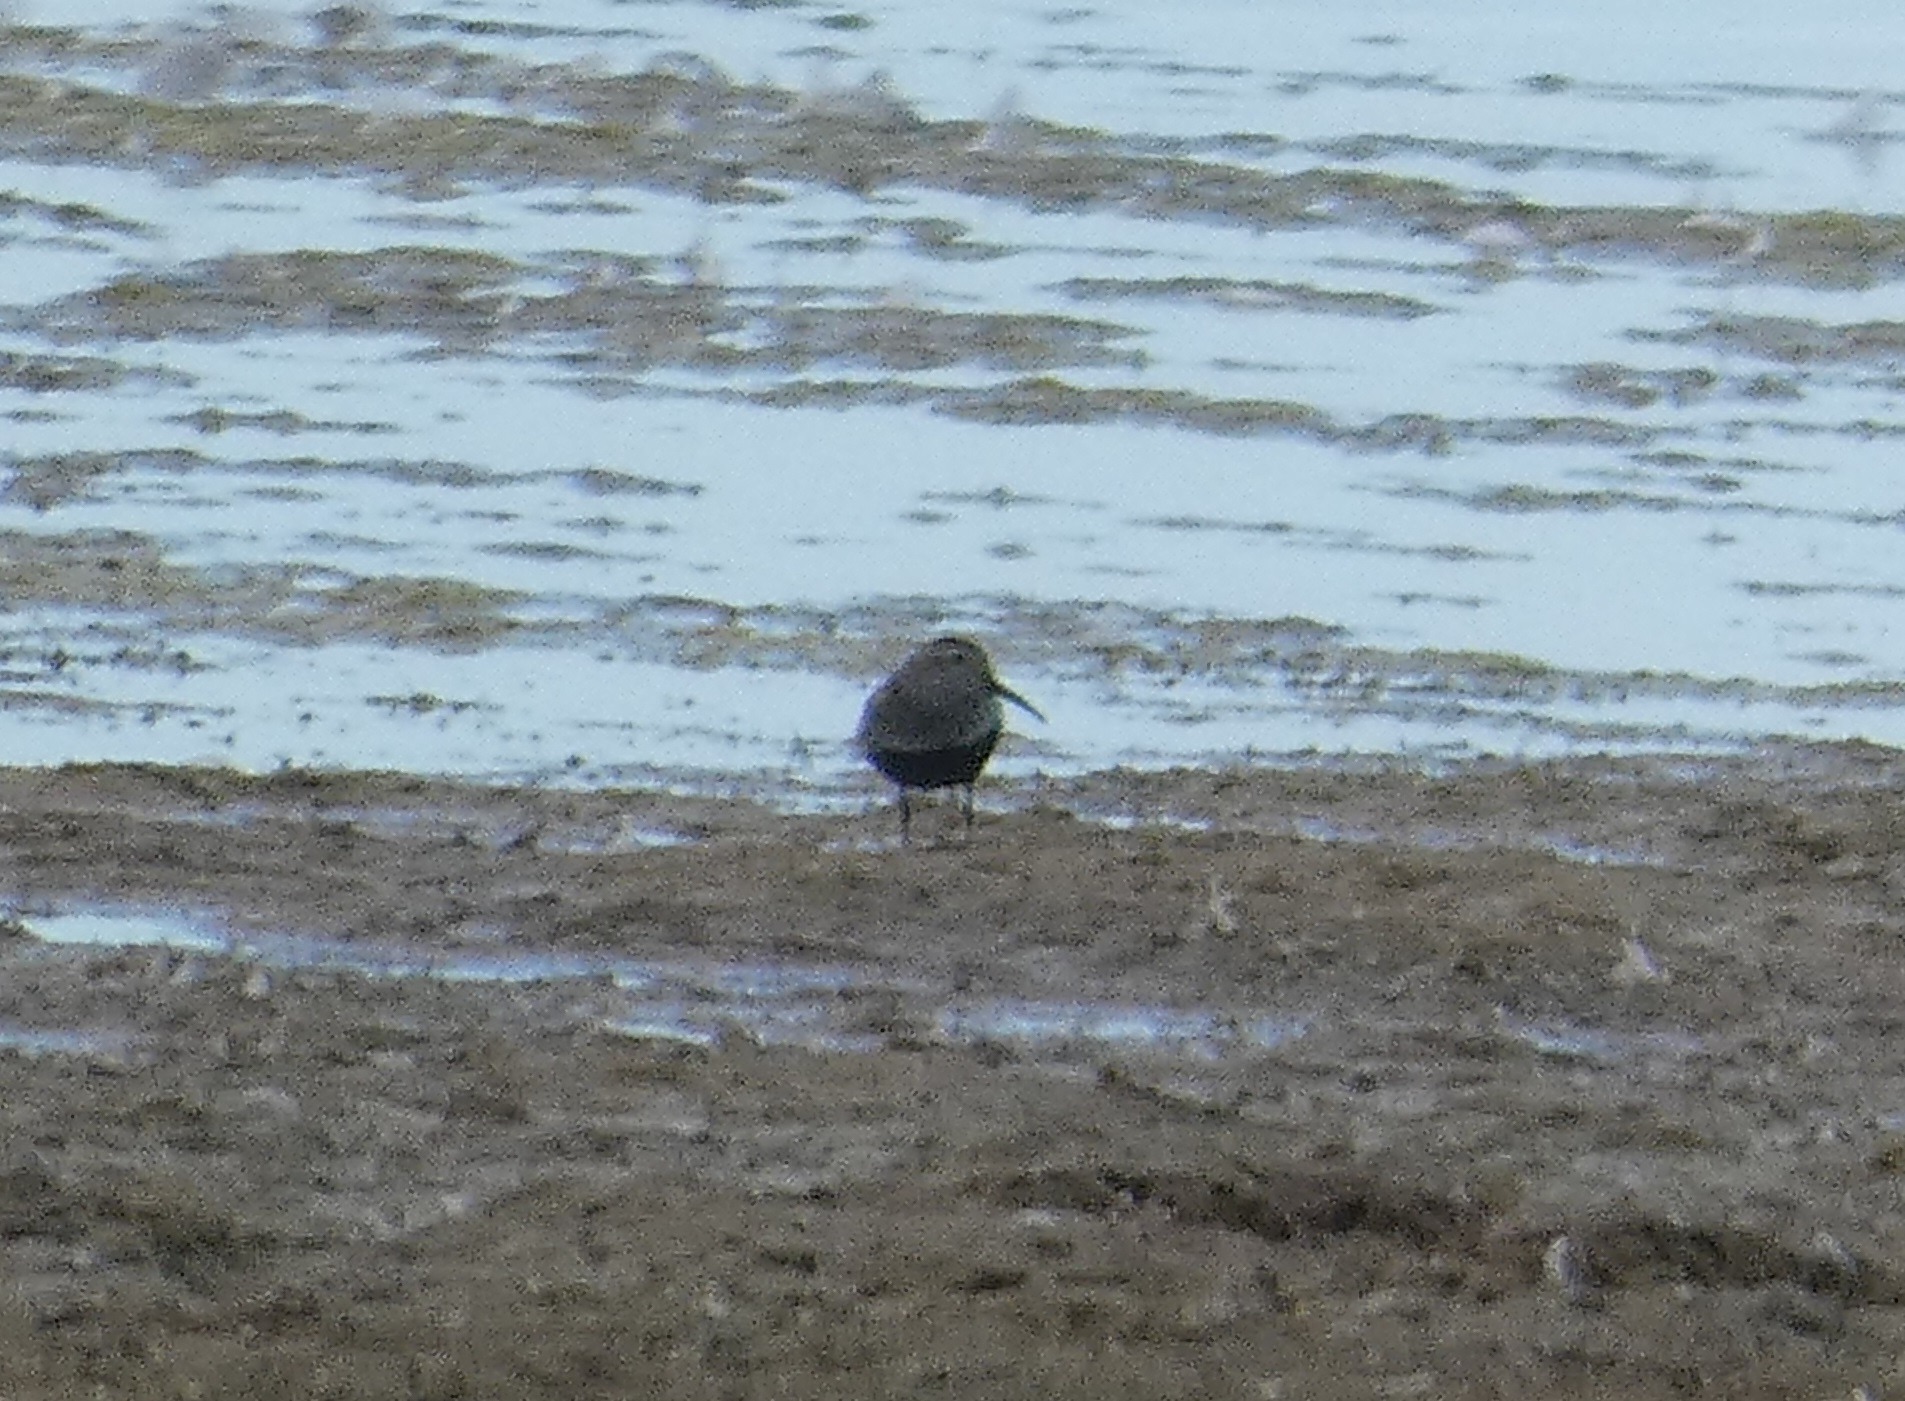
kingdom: Animalia
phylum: Chordata
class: Aves
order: Charadriiformes
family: Scolopacidae
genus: Calidris
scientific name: Calidris alpina
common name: Almindelig ryle
